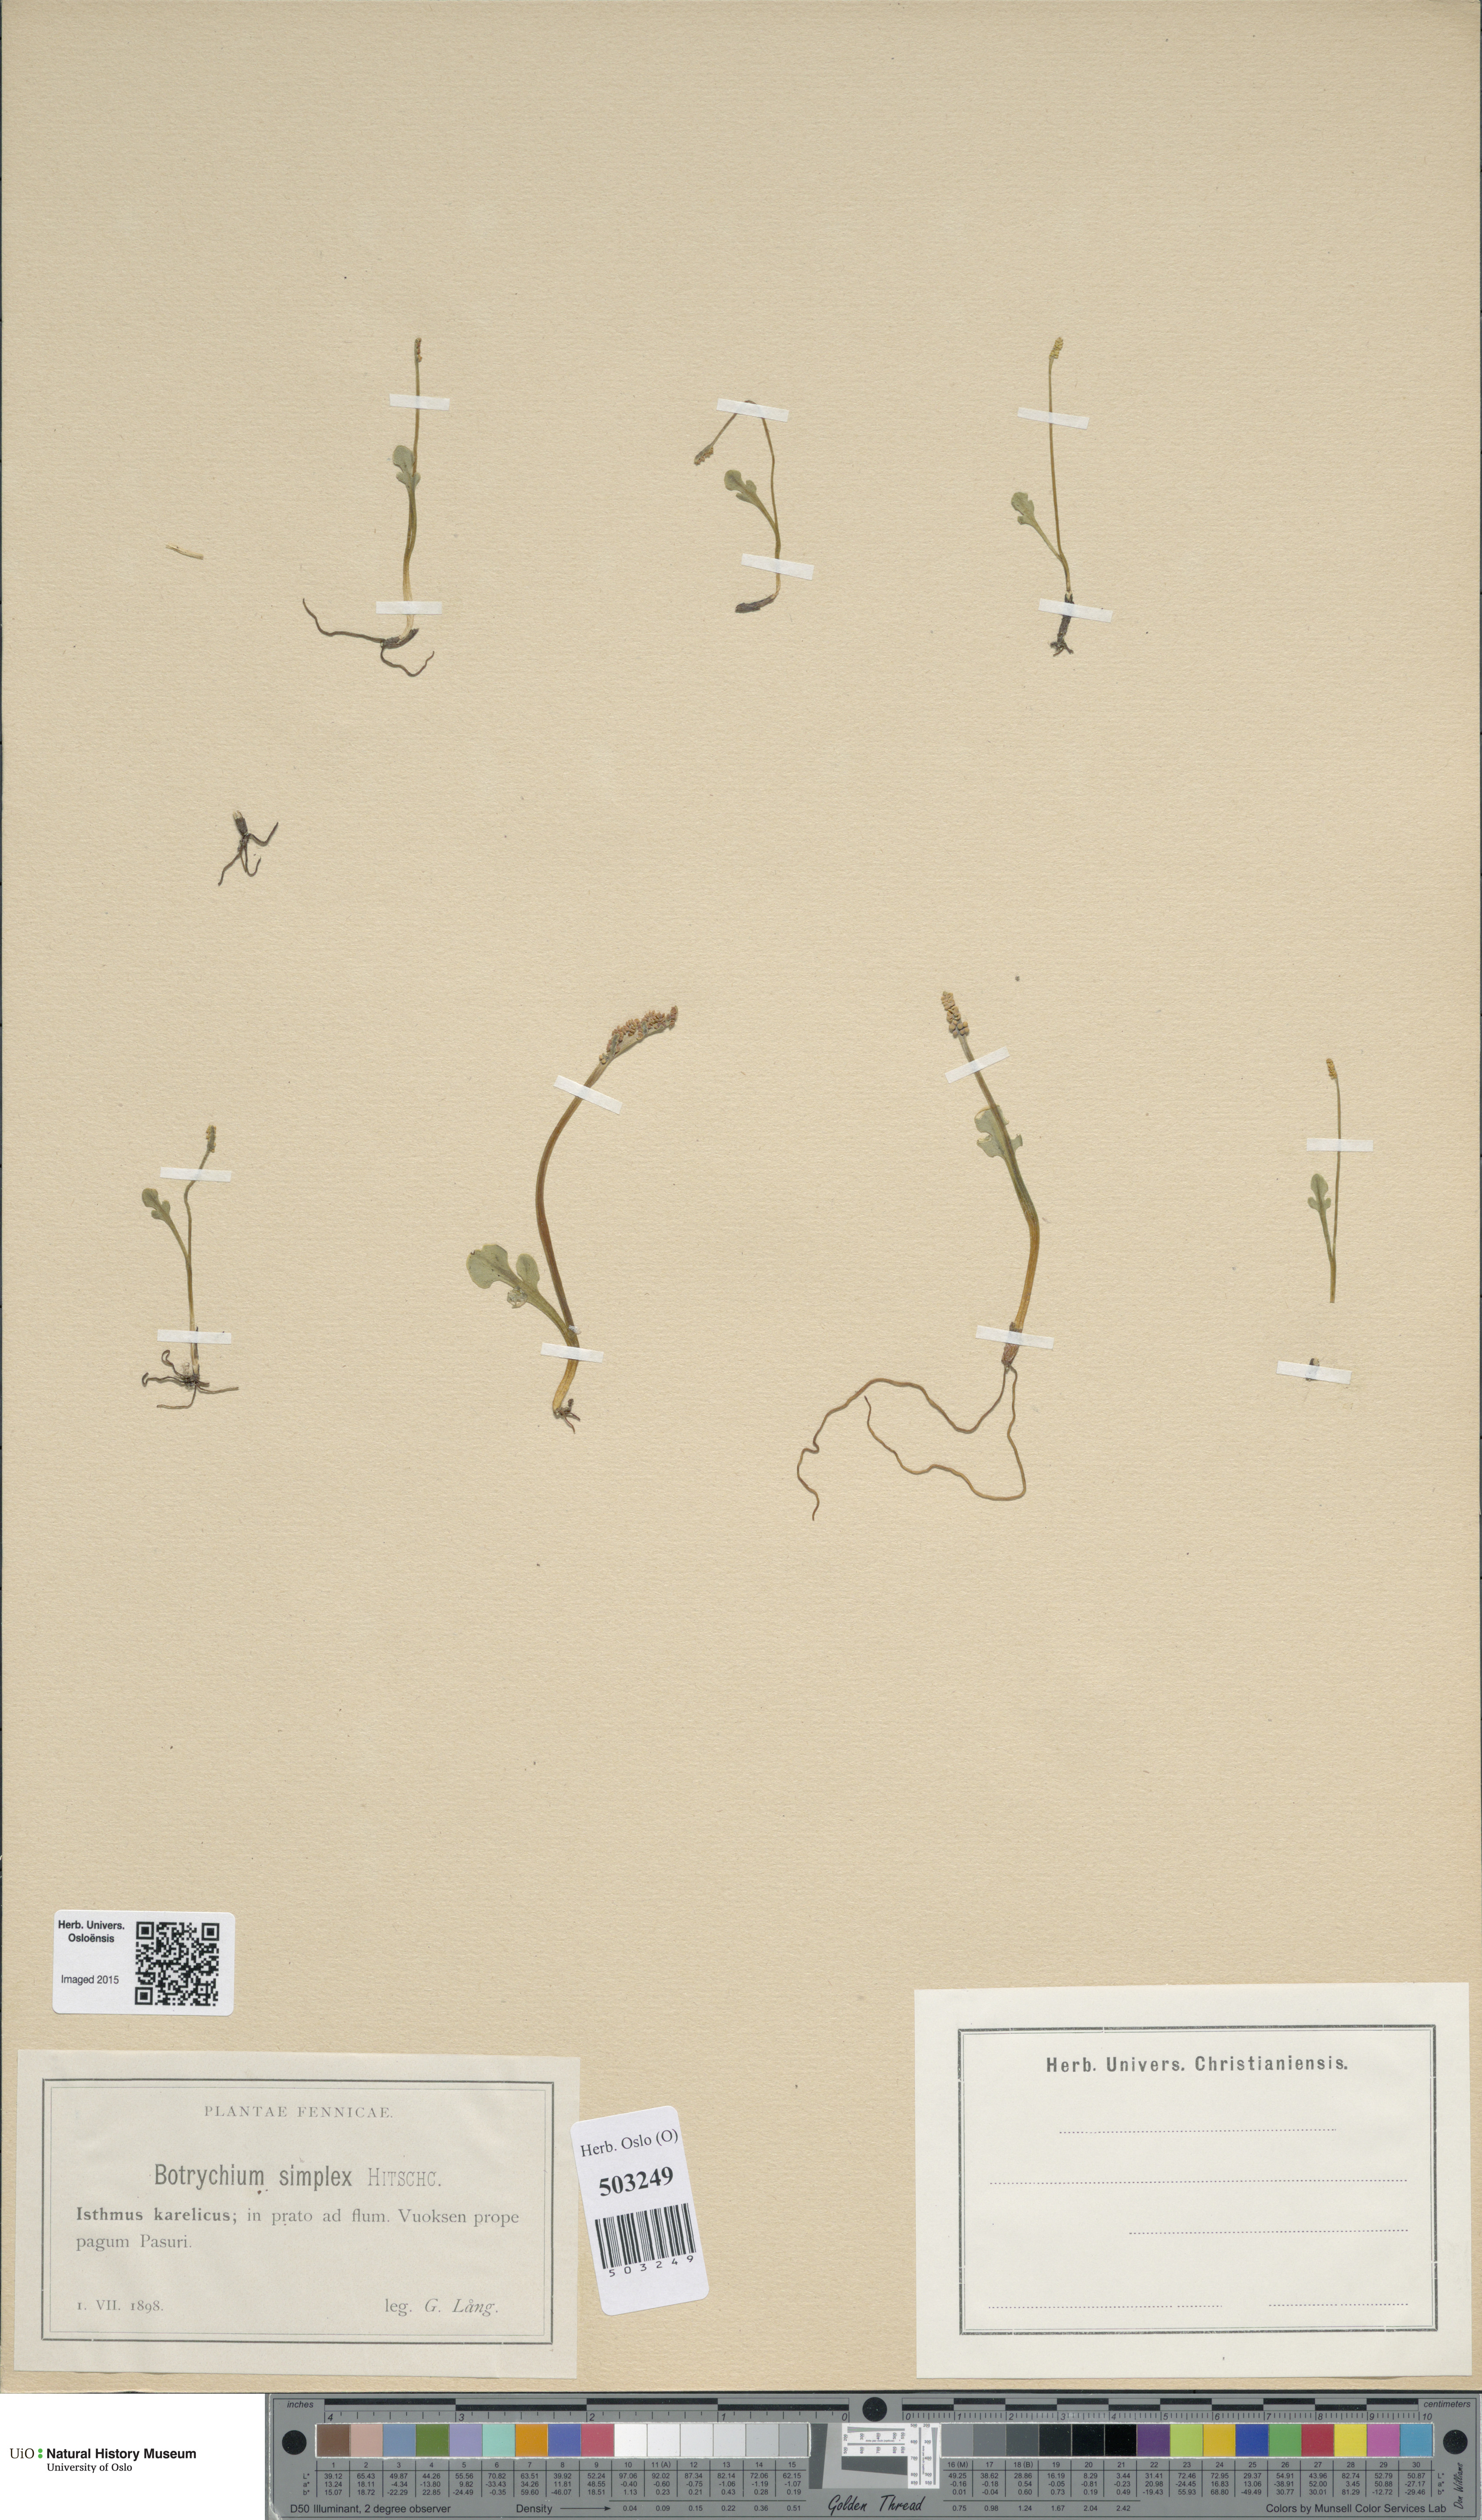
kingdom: Plantae
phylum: Tracheophyta
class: Polypodiopsida
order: Ophioglossales
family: Ophioglossaceae
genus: Botrychium
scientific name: Botrychium simplex
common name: Least moonwort
